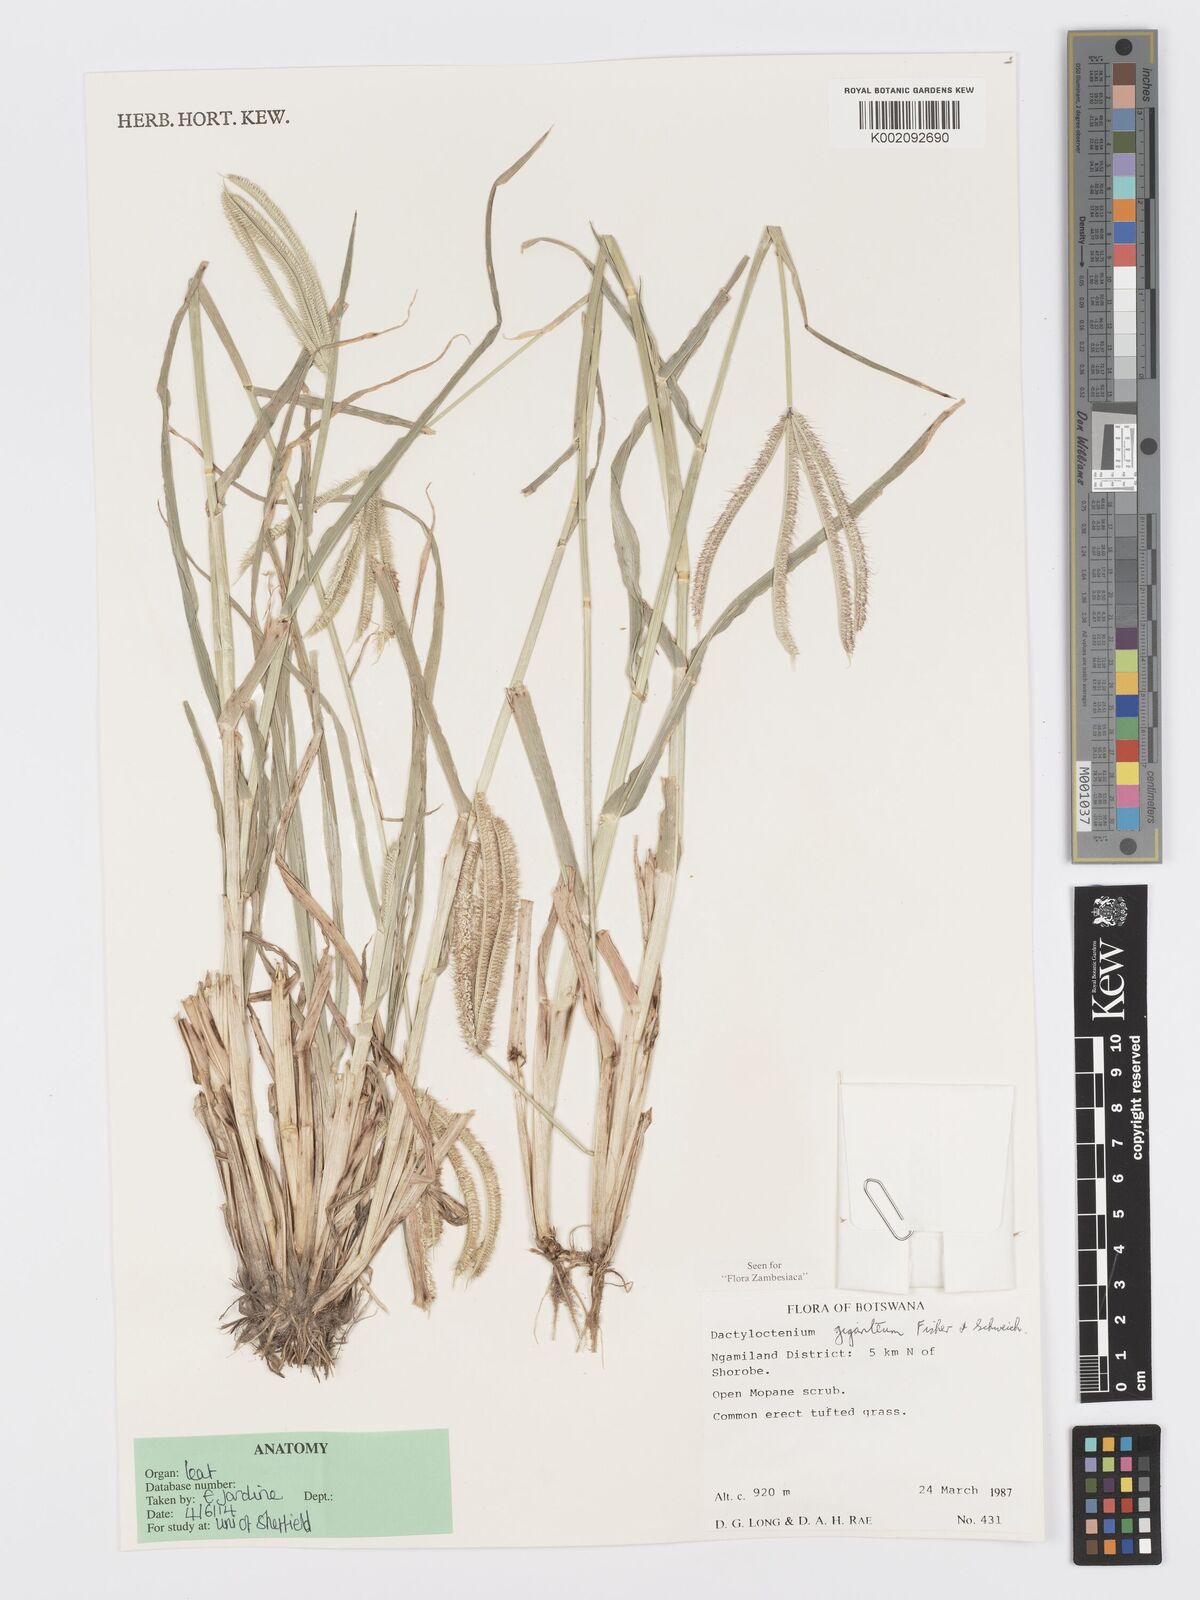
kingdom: Plantae
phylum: Tracheophyta
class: Liliopsida
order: Poales
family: Poaceae
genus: Dactyloctenium
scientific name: Dactyloctenium giganteum
